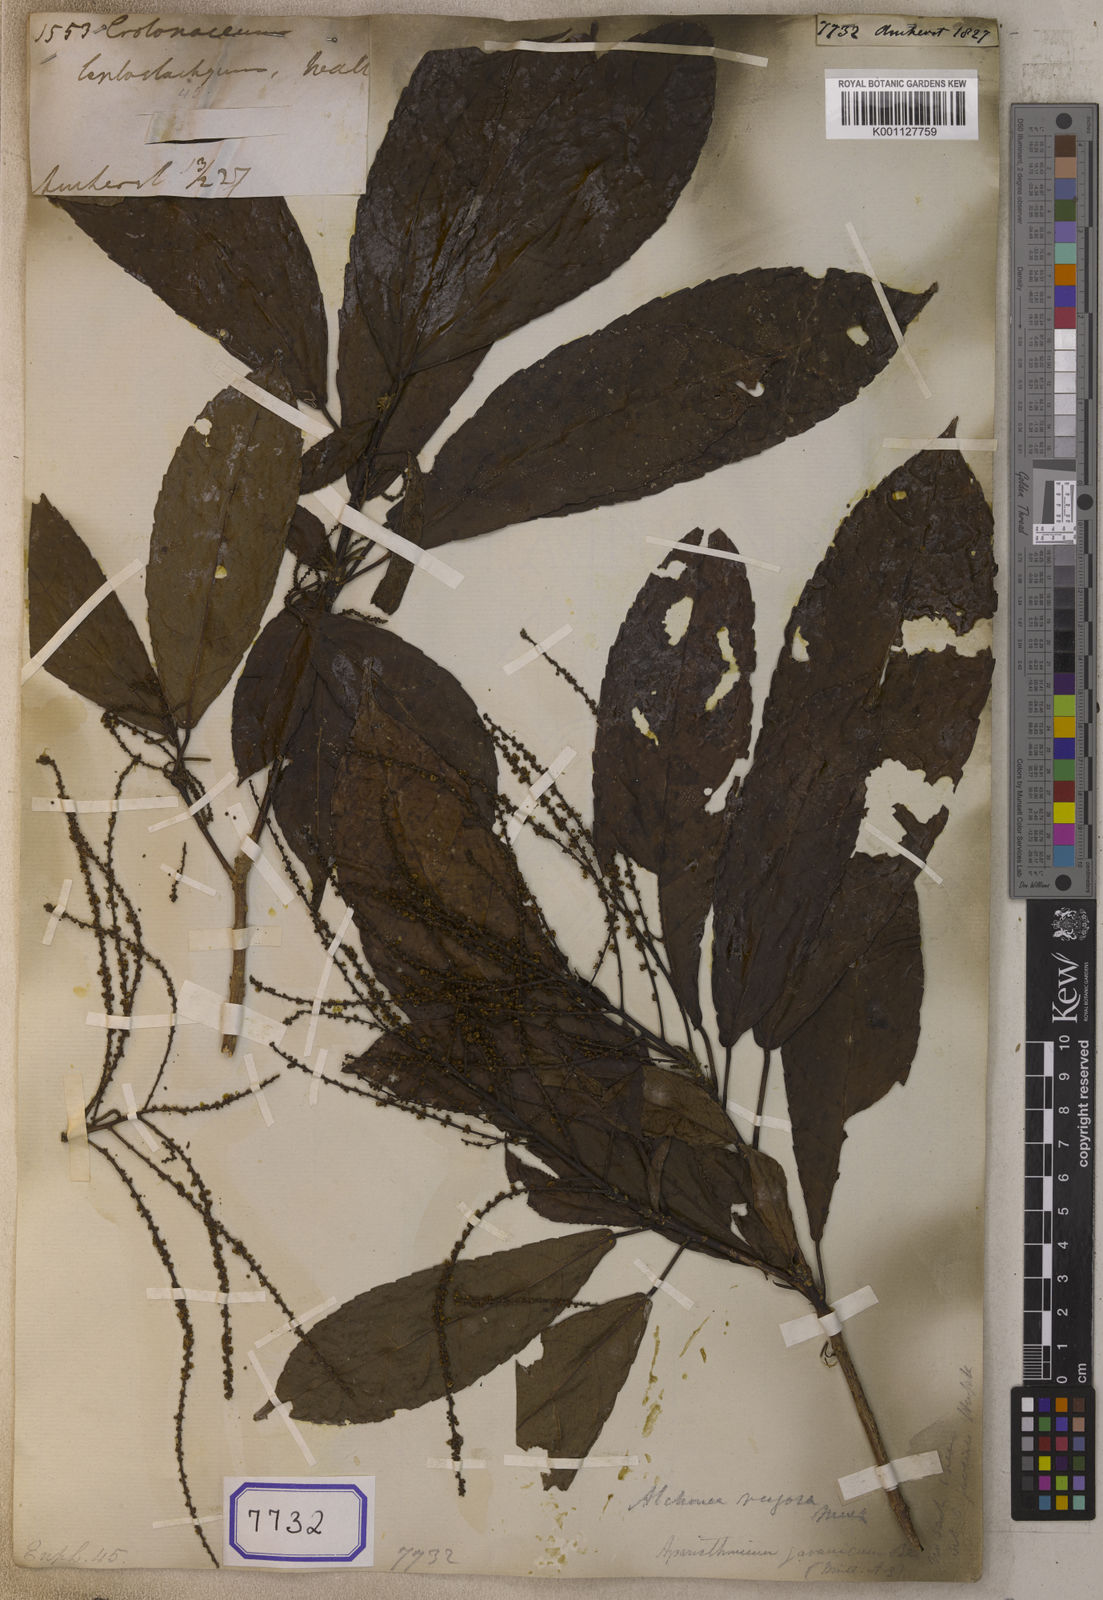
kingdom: Plantae
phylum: Tracheophyta
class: Magnoliopsida
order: Malpighiales
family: Euphorbiaceae
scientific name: Euphorbiaceae
